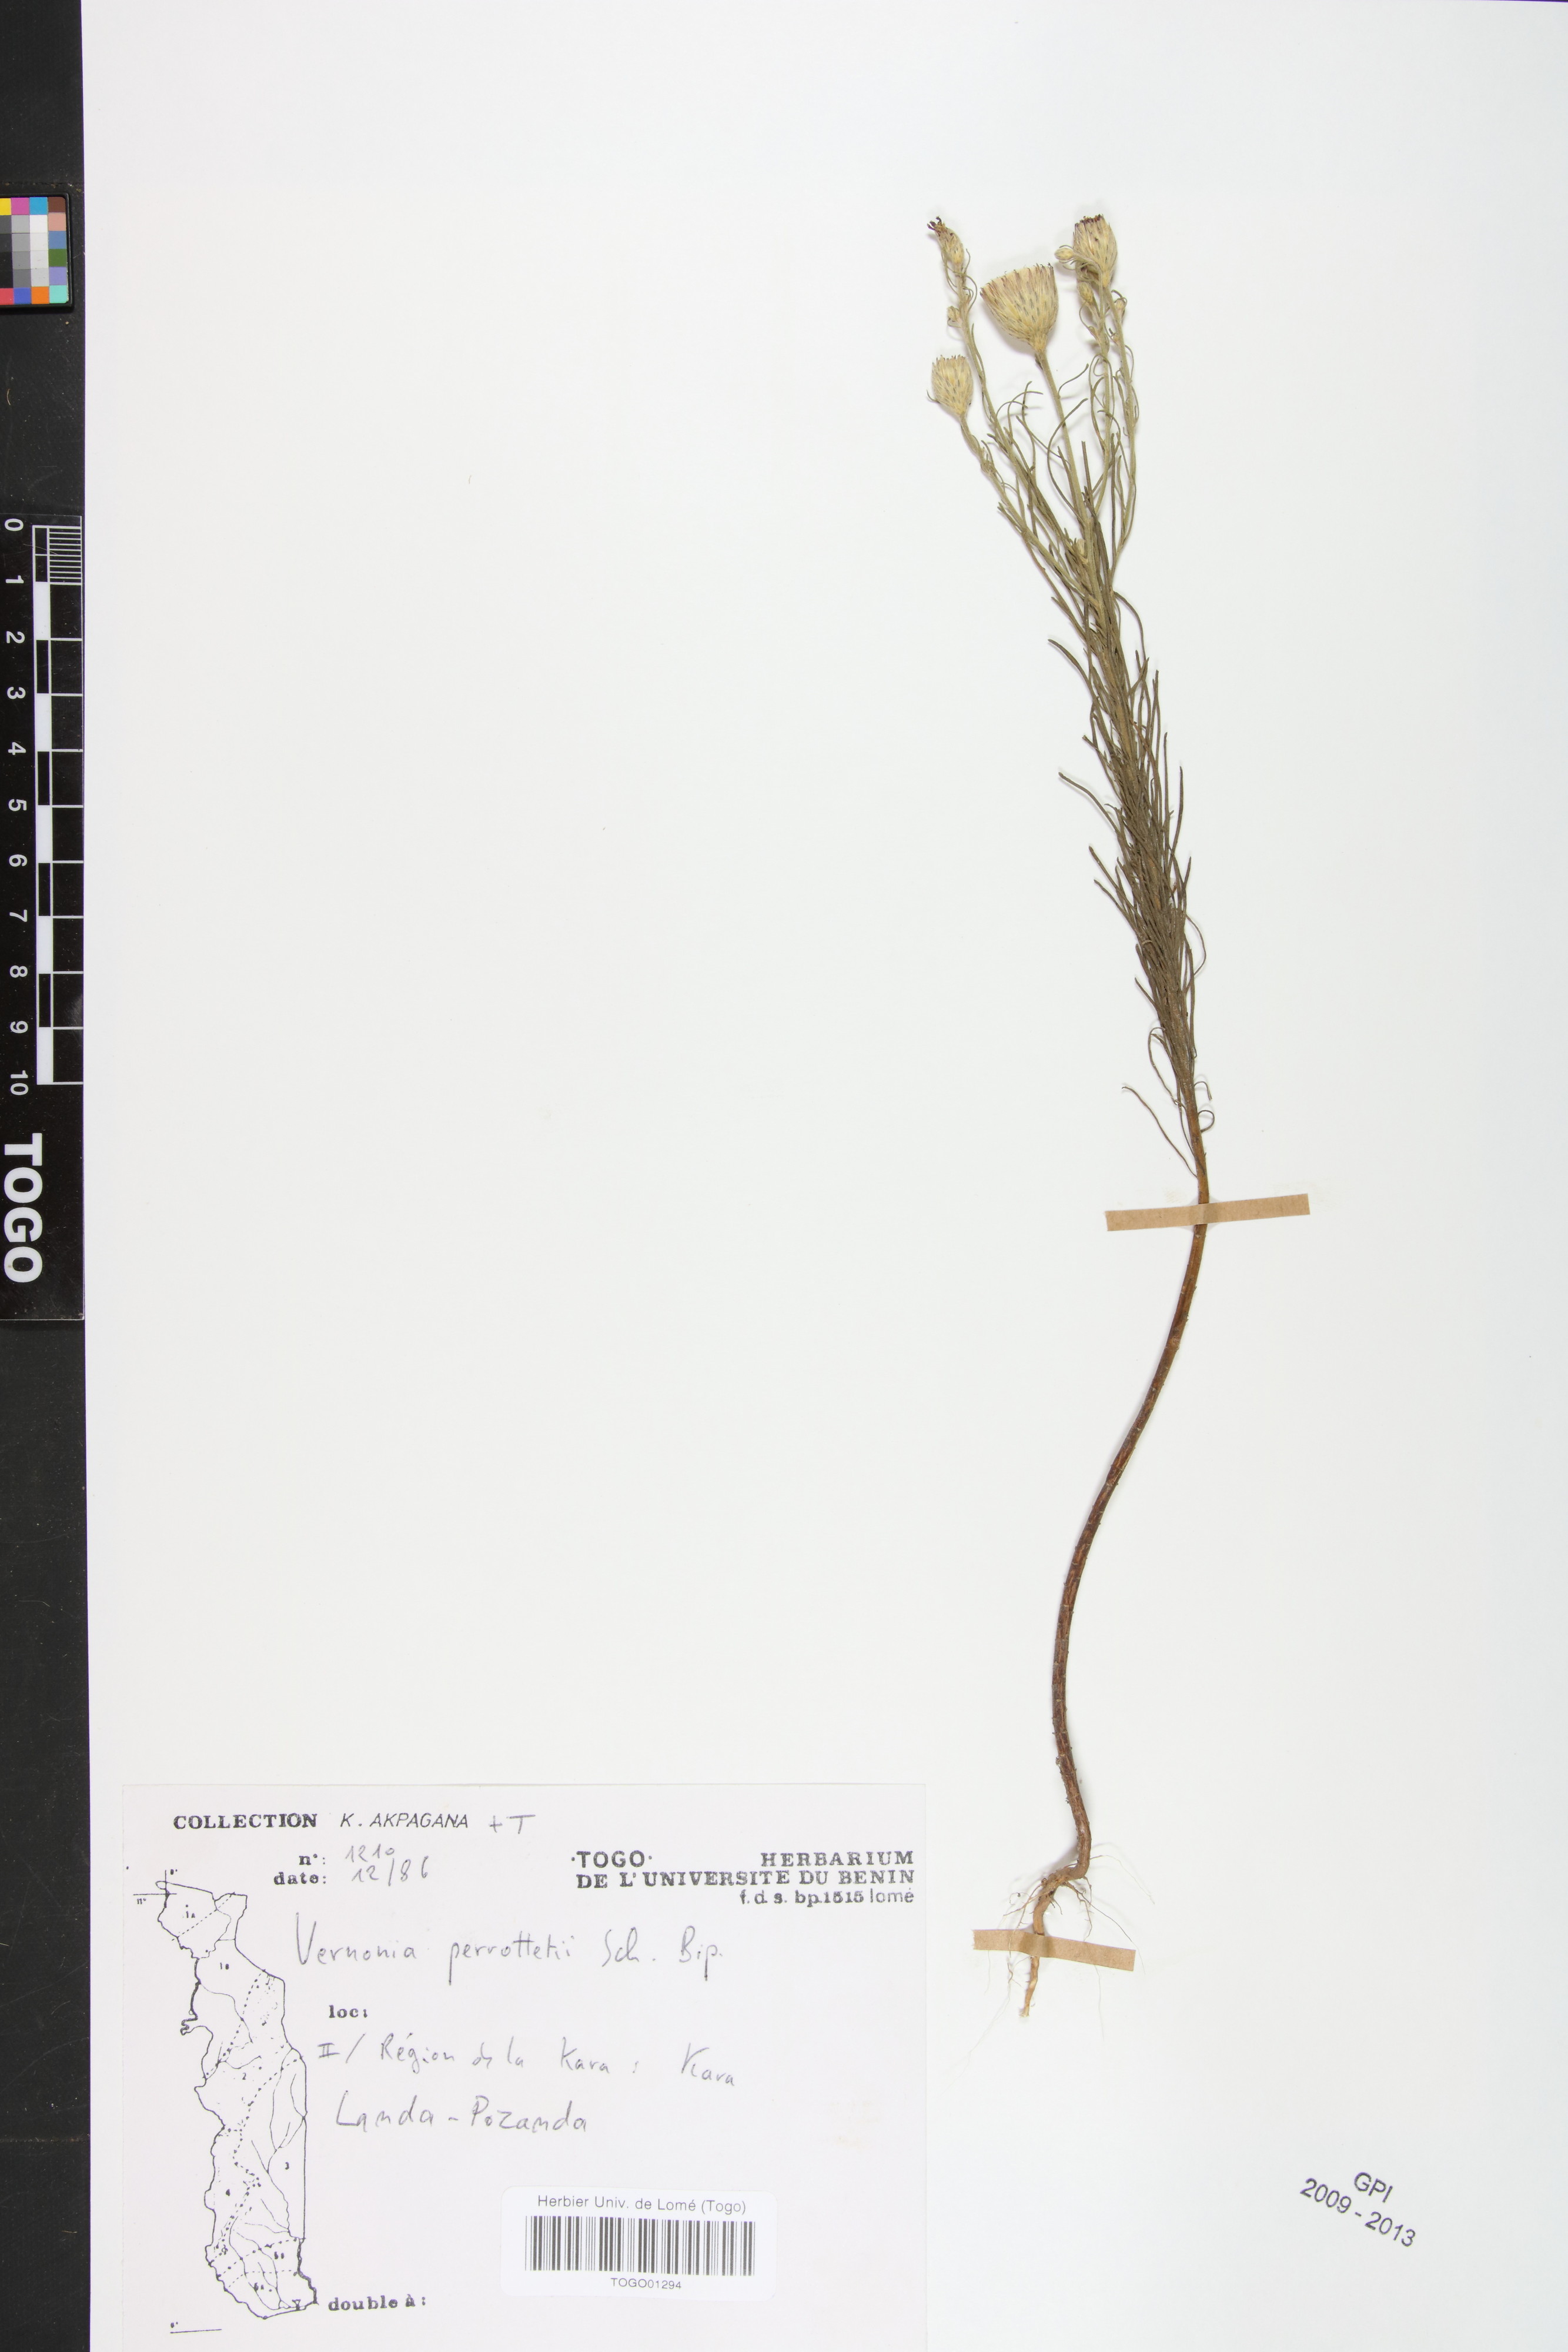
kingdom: Plantae
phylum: Tracheophyta
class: Magnoliopsida
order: Asterales
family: Asteraceae
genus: Crystallopollen
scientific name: Crystallopollen serratuloides
